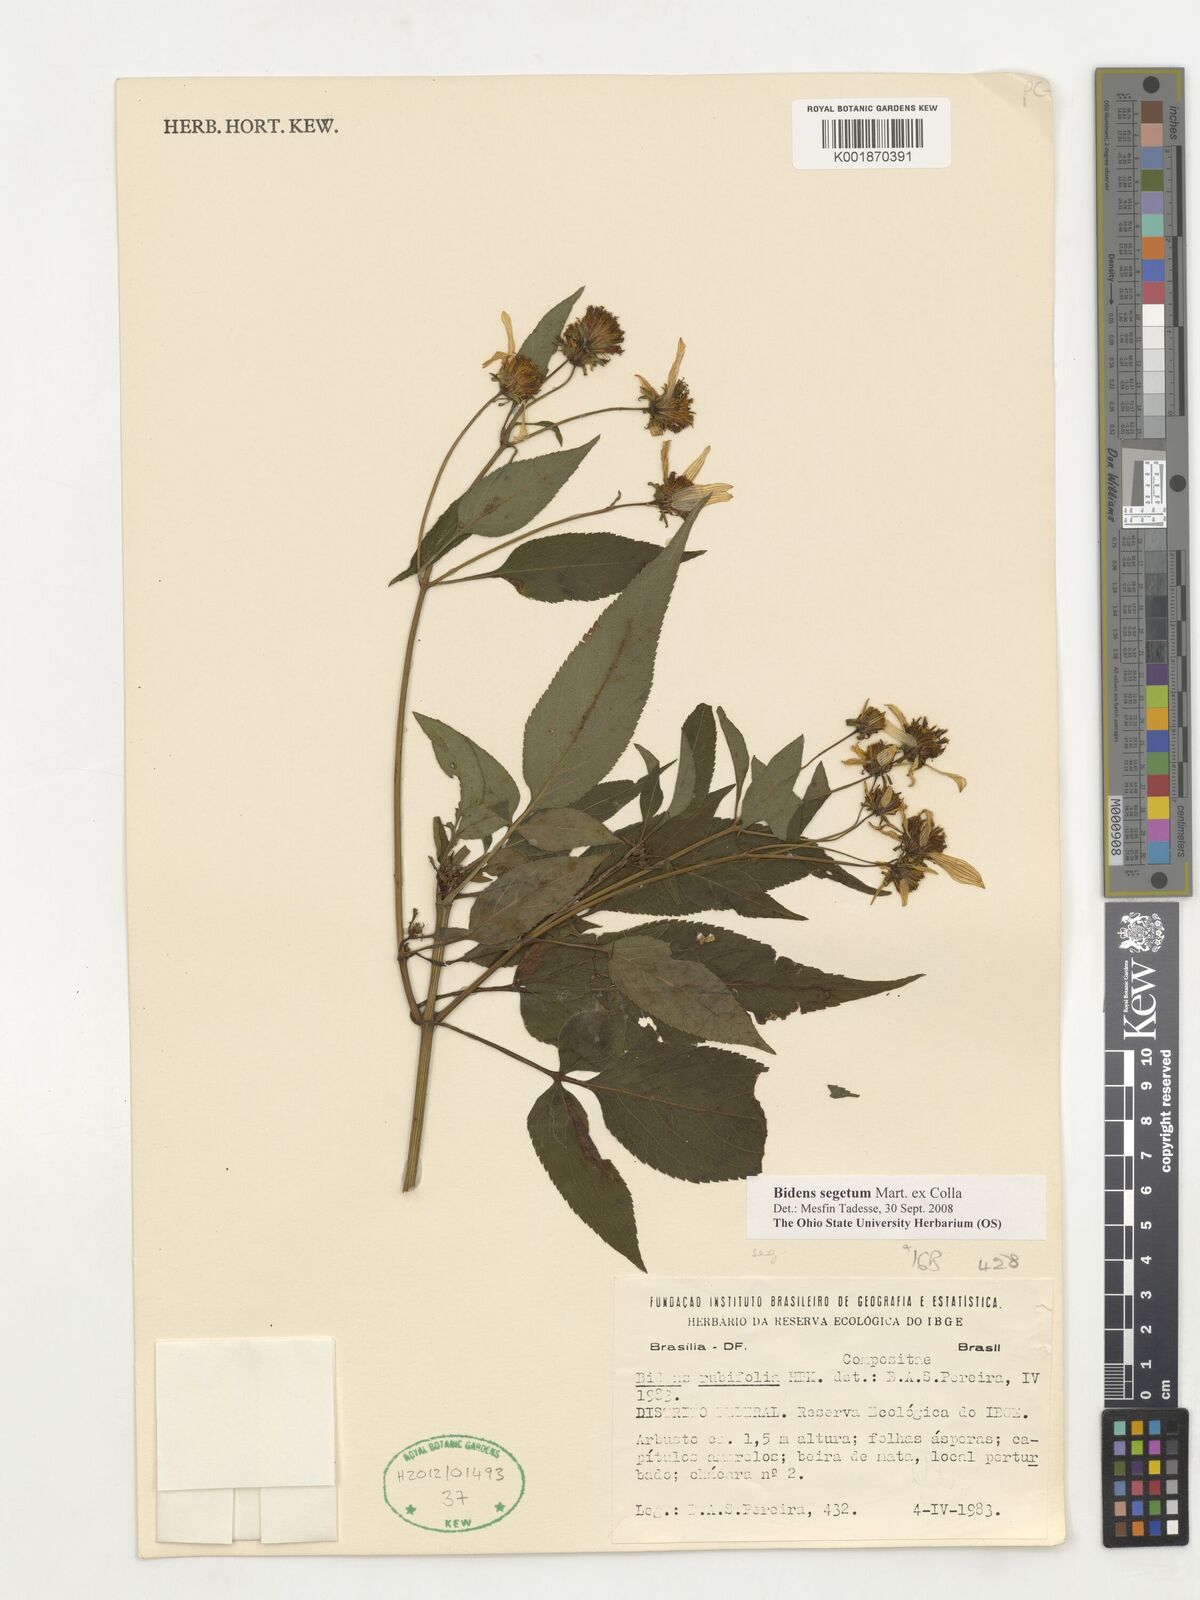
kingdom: Plantae
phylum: Tracheophyta
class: Magnoliopsida
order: Asterales
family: Asteraceae
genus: Bidens
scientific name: Bidens segetum
